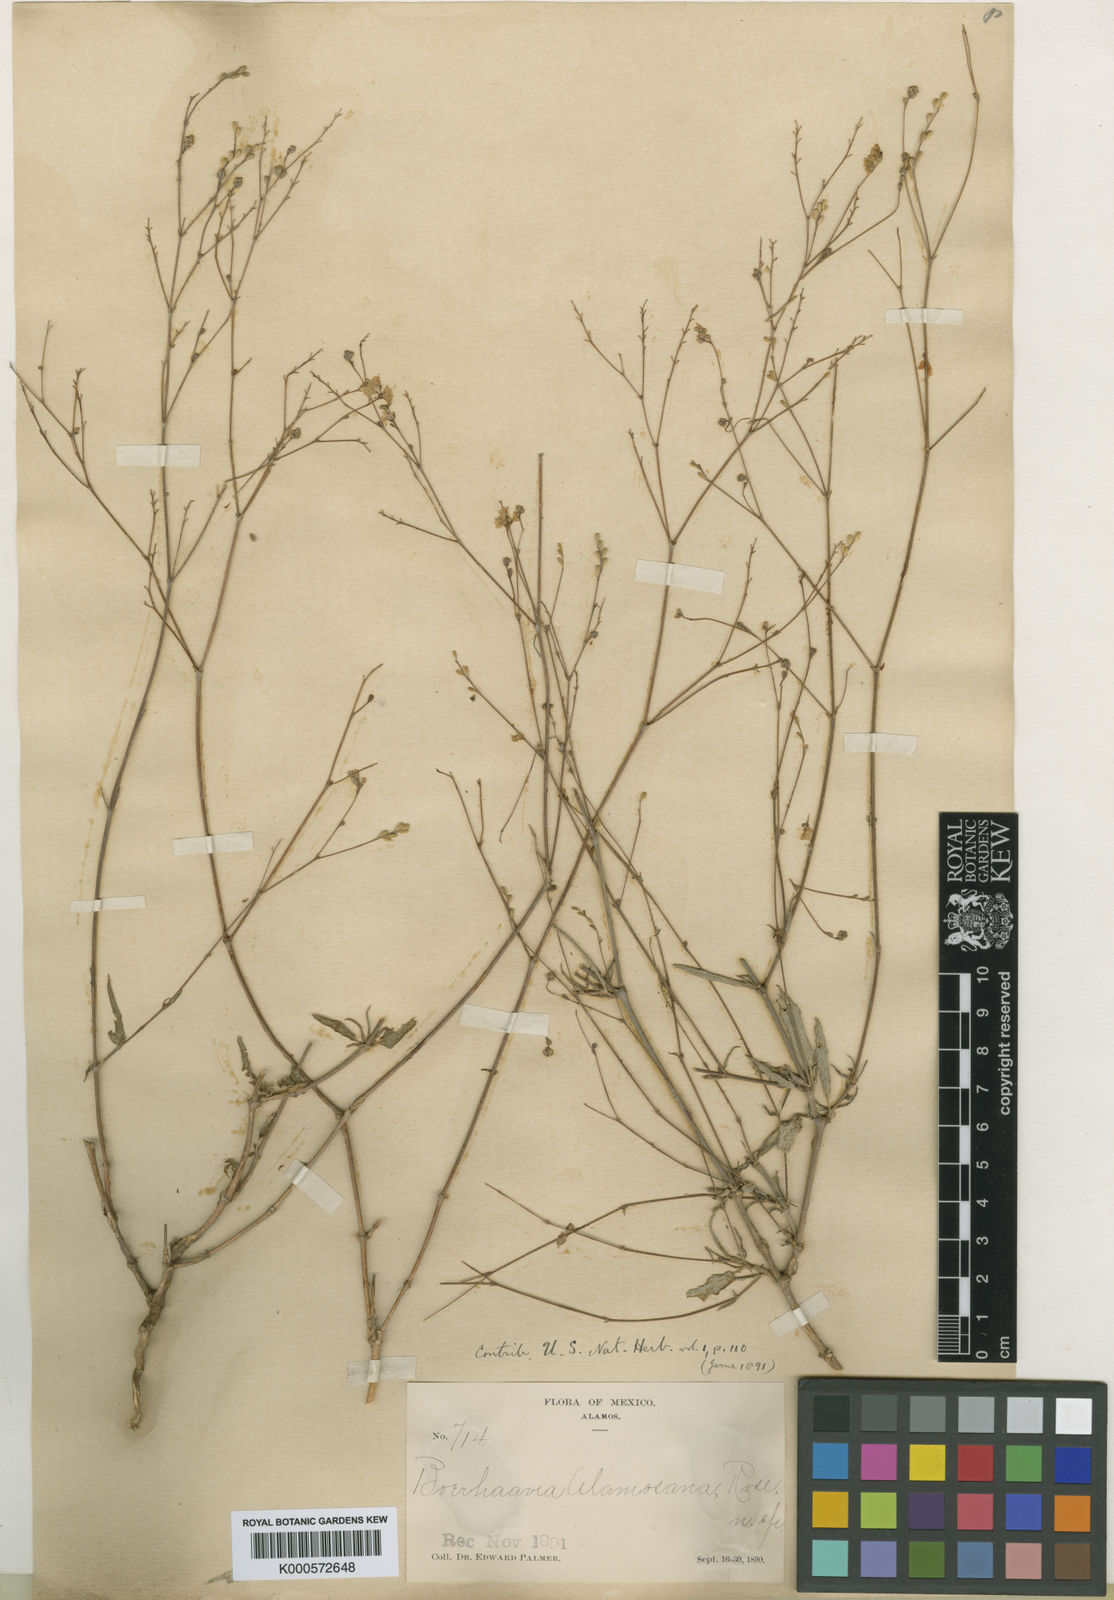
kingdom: Plantae
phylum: Tracheophyta
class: Magnoliopsida
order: Caryophyllales
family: Nyctaginaceae
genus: Boerhavia
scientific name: Boerhavia
